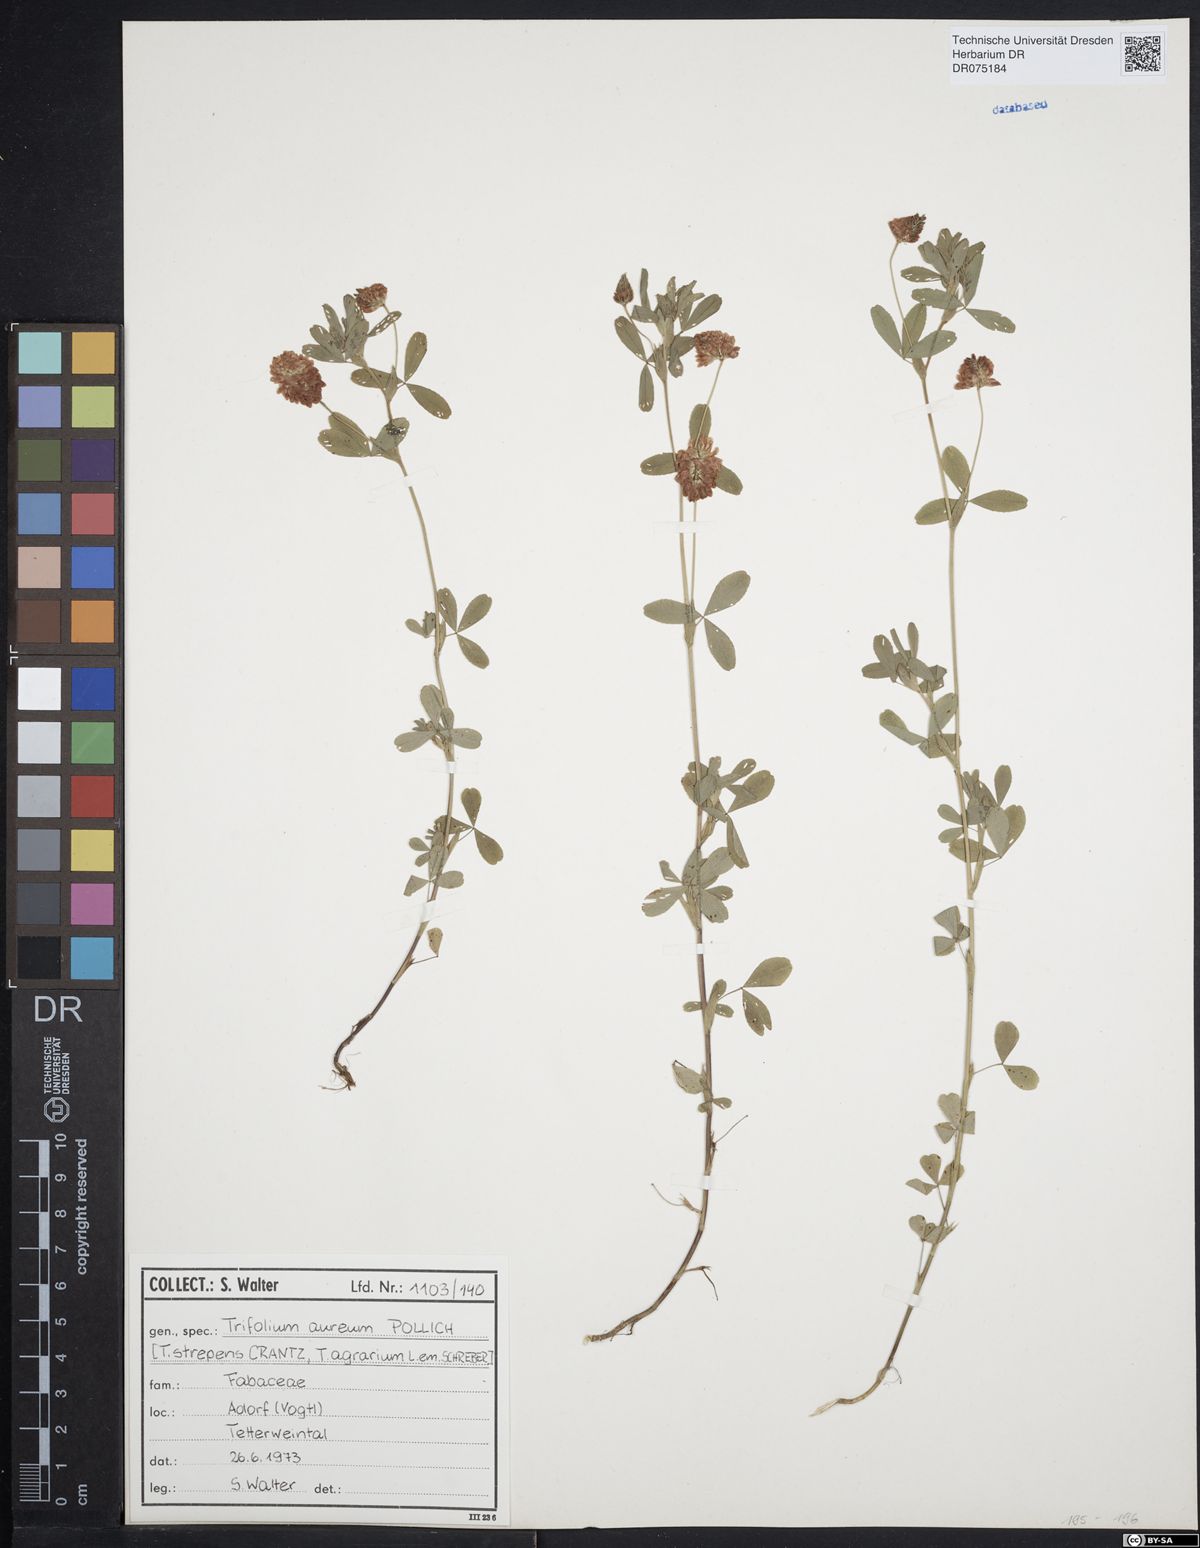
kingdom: Plantae
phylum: Tracheophyta
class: Magnoliopsida
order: Fabales
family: Fabaceae
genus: Trifolium
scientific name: Trifolium aureum
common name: Golden clover
